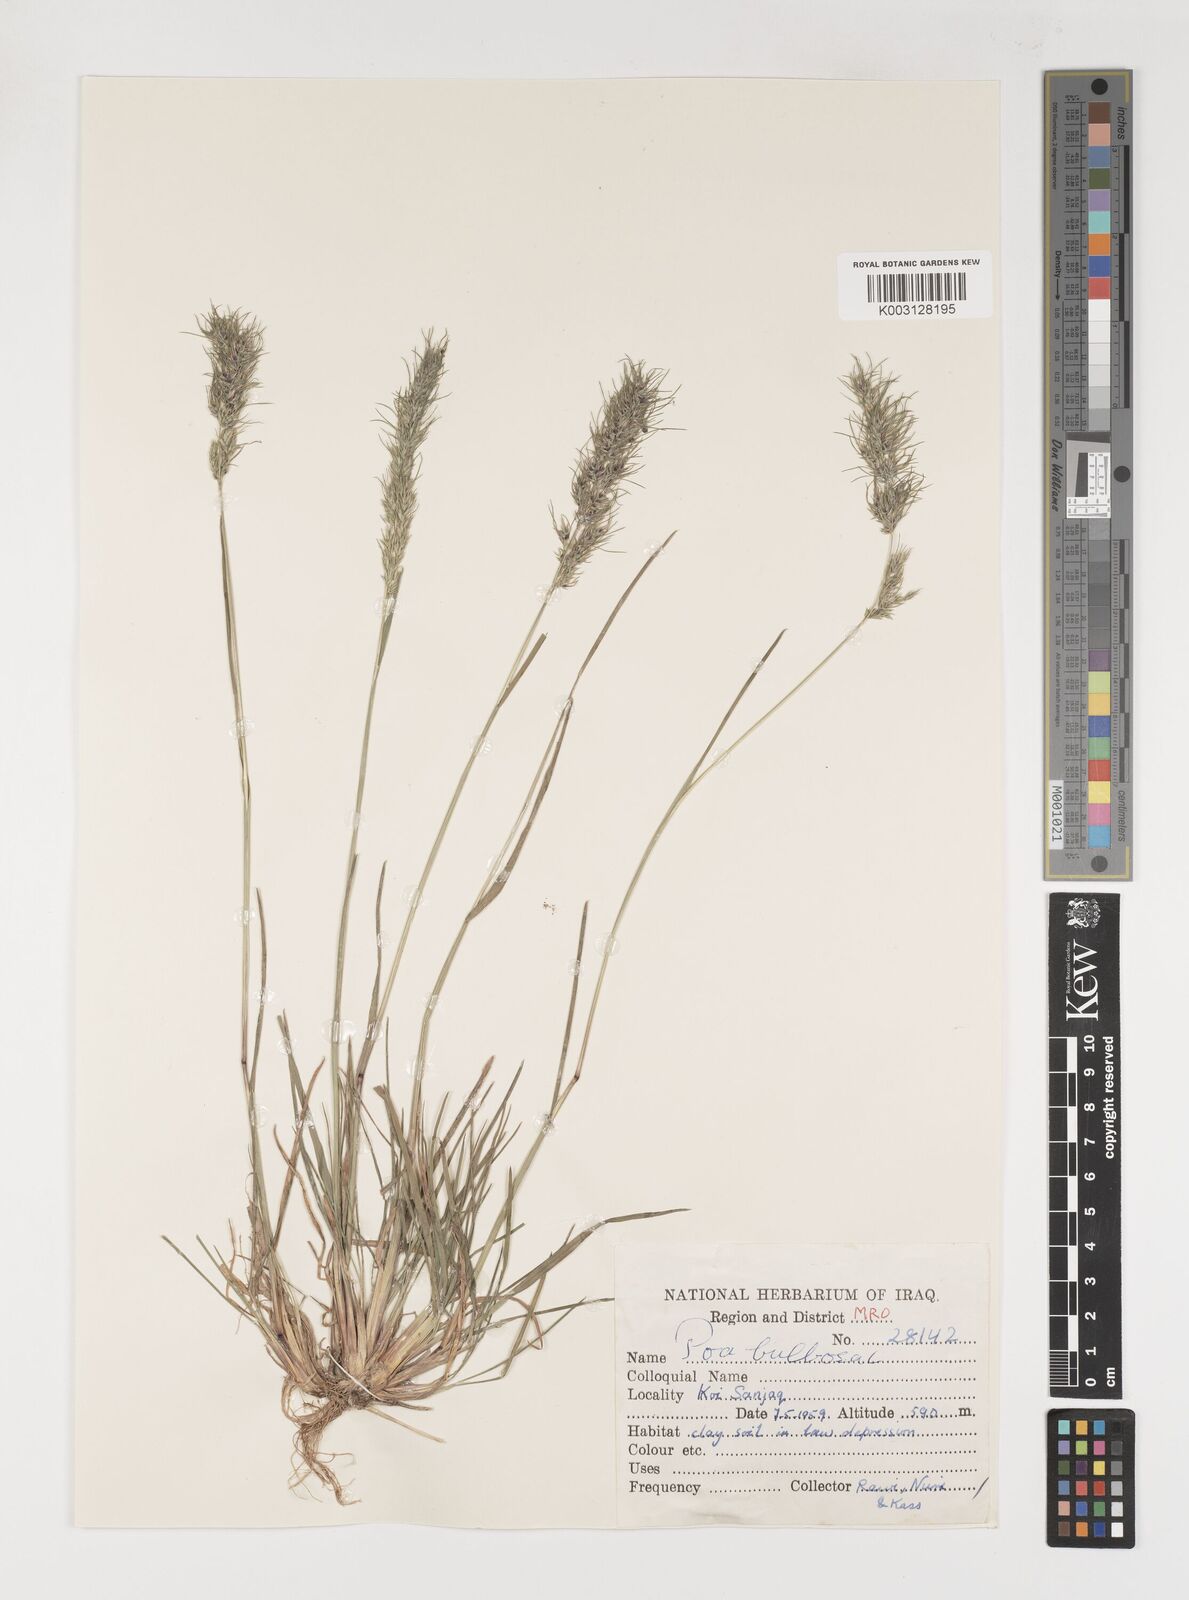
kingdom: Plantae
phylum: Tracheophyta
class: Liliopsida
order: Poales
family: Poaceae
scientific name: Poaceae
